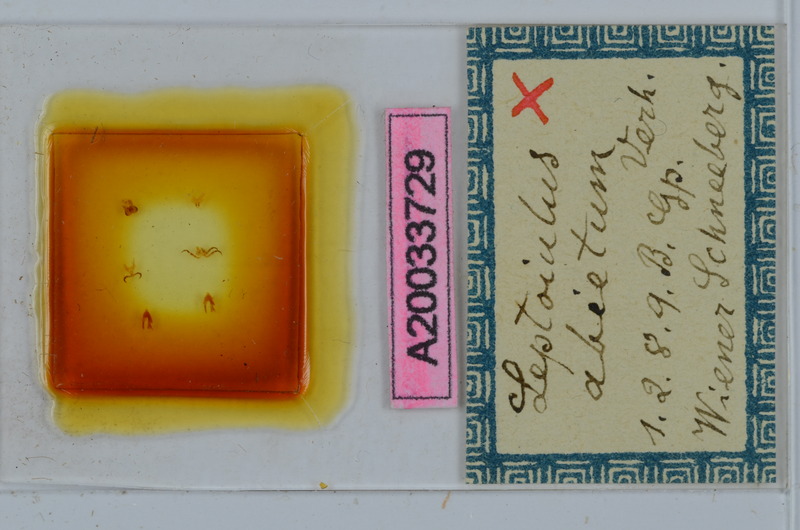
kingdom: Animalia
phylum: Arthropoda
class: Diplopoda
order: Julida
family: Julidae
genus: Leptoiulus
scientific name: Leptoiulus abietum
